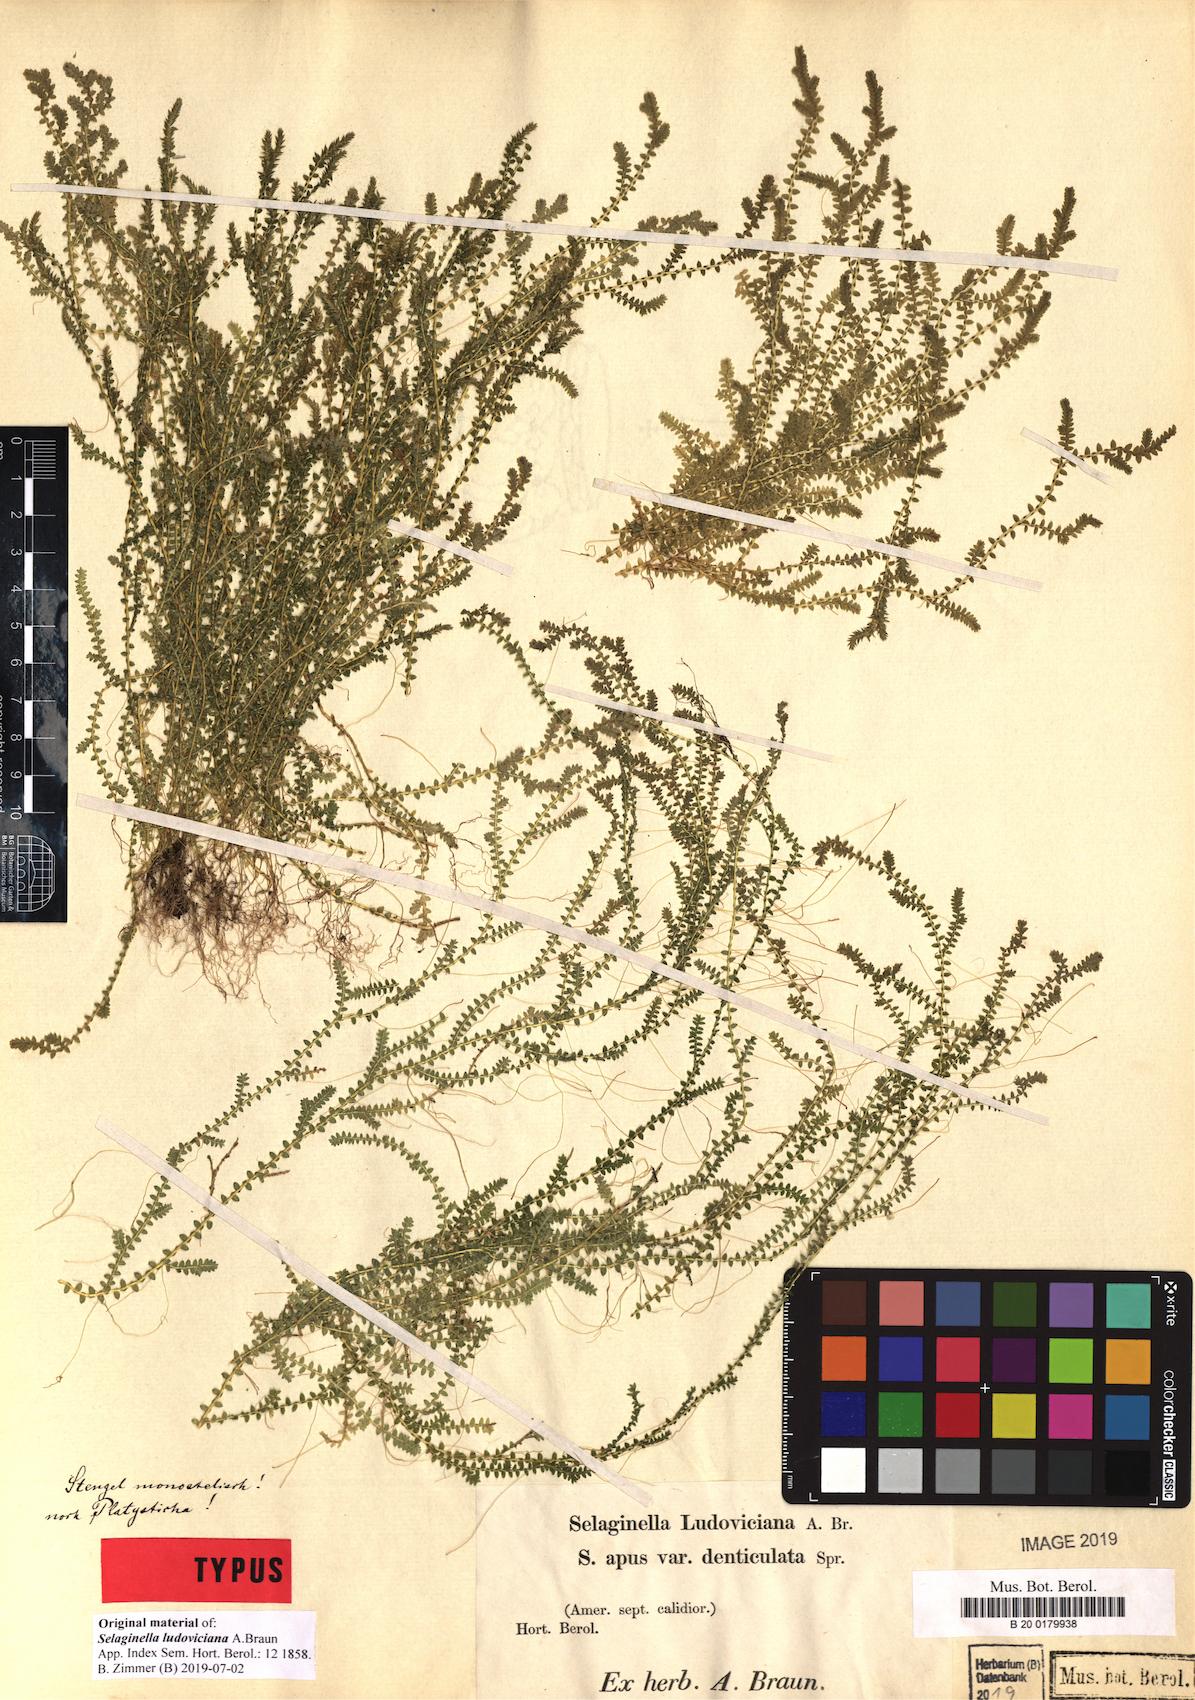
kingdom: Plantae
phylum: Tracheophyta
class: Lycopodiopsida
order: Selaginellales
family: Selaginellaceae
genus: Selaginella
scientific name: Selaginella ludoviciana
